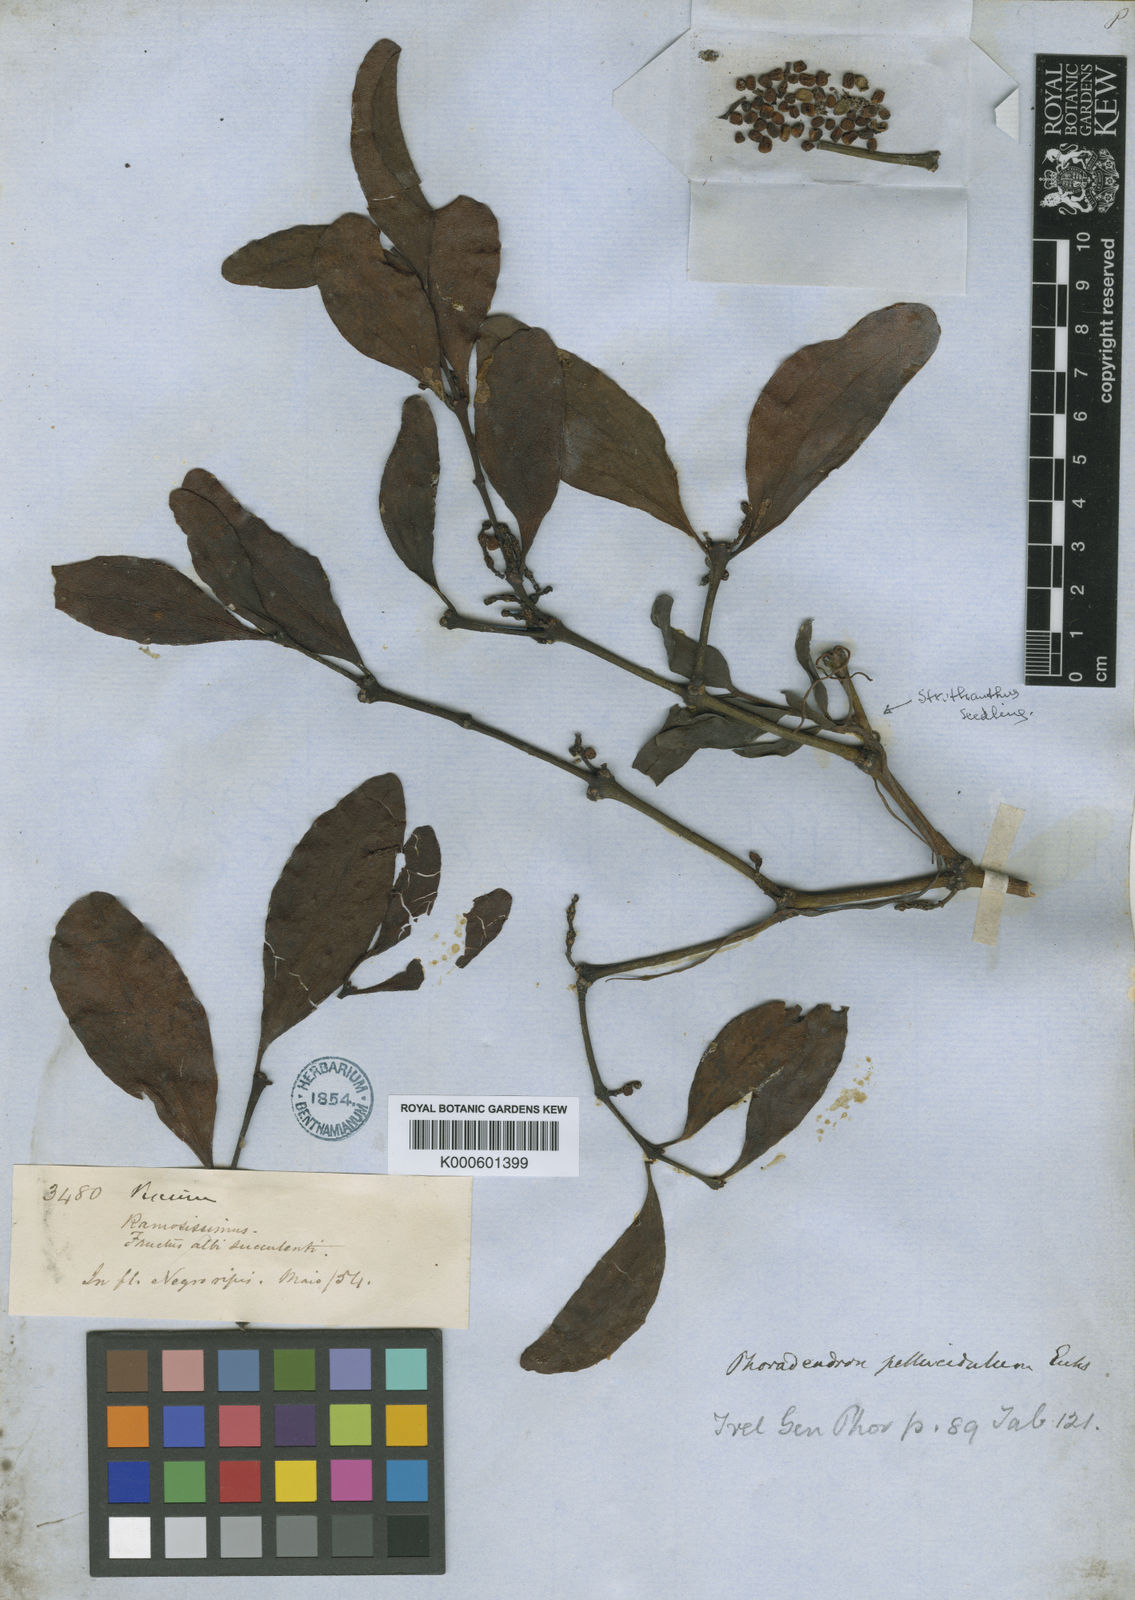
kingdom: Plantae
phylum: Tracheophyta
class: Magnoliopsida
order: Santalales
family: Viscaceae
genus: Phoradendron
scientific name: Phoradendron pellucidulum
